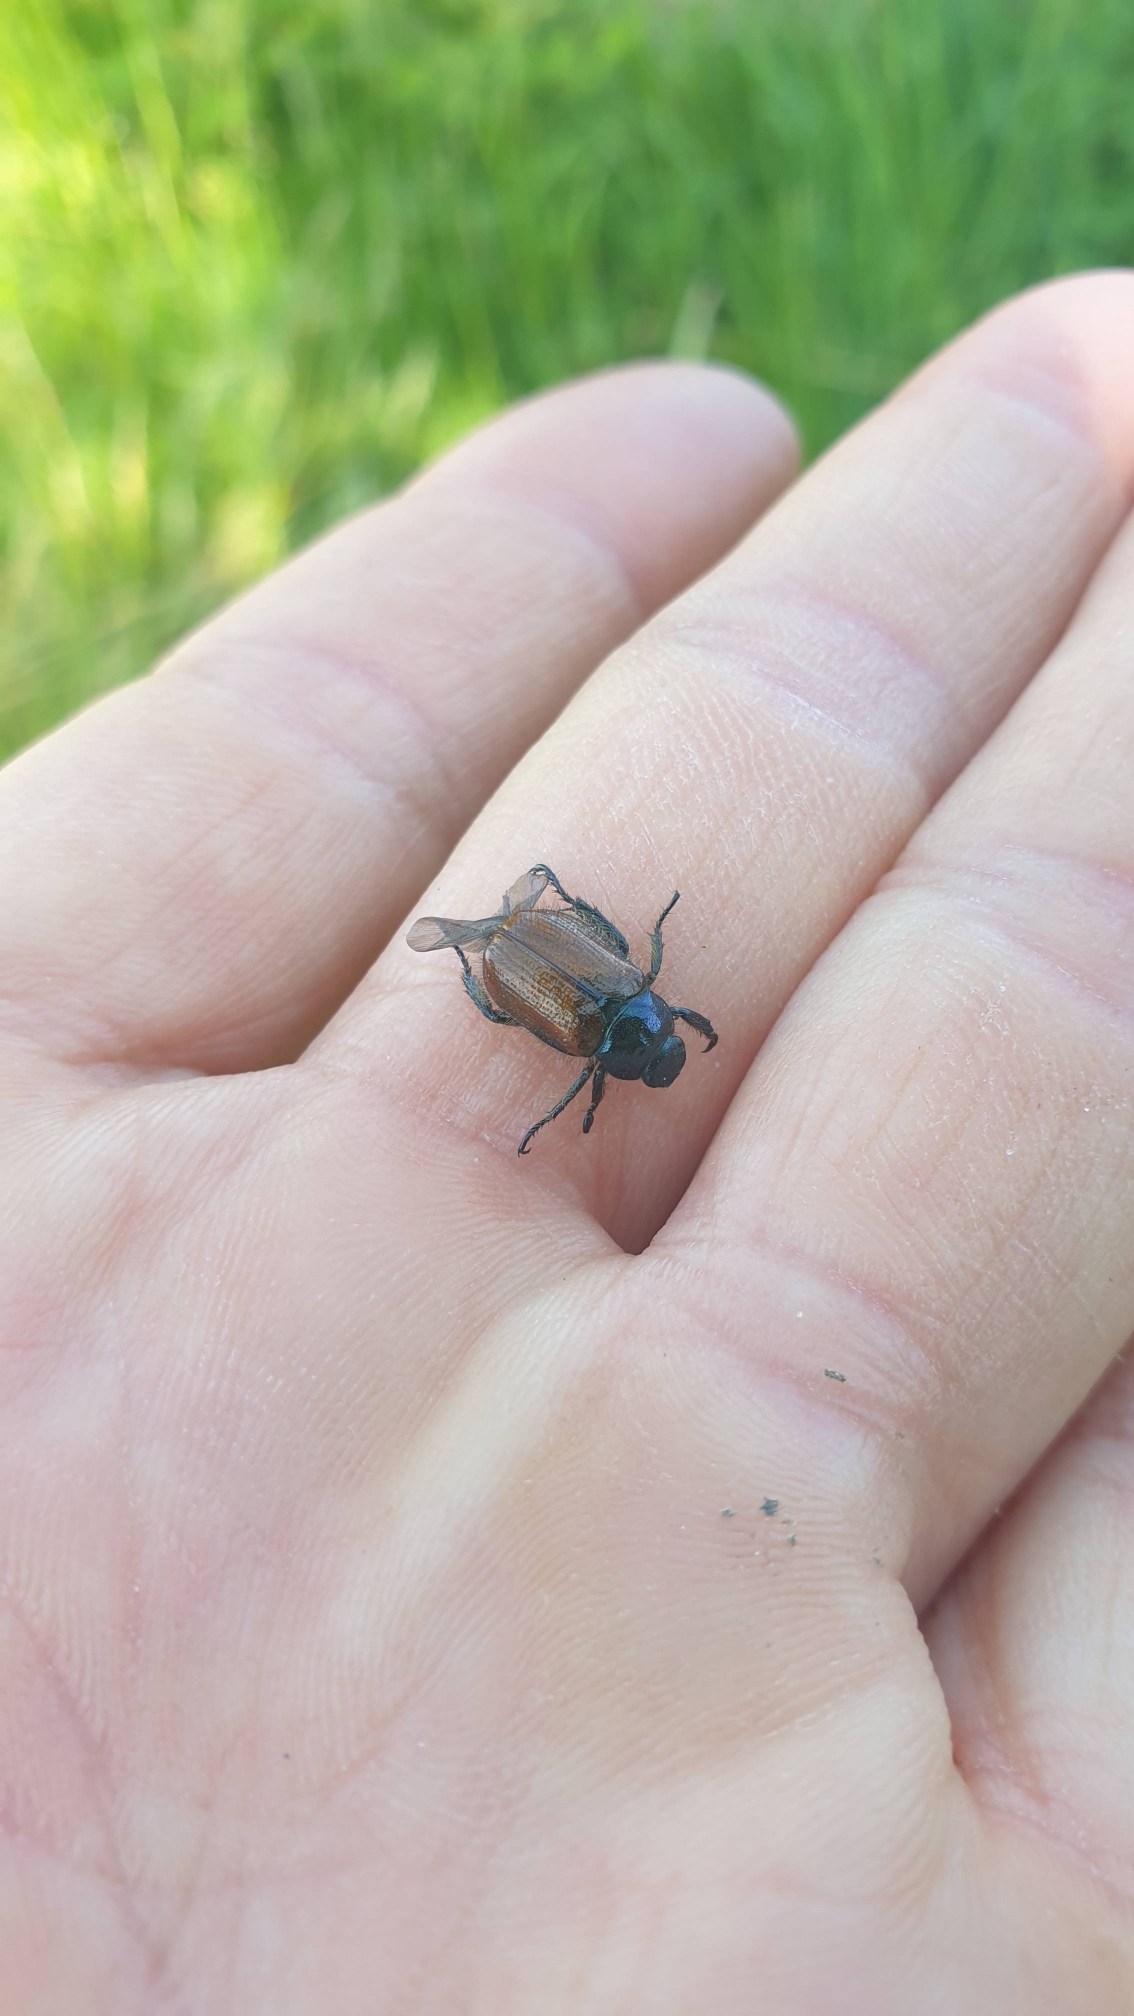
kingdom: Animalia
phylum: Arthropoda
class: Insecta
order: Coleoptera
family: Scarabaeidae
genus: Phyllopertha
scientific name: Phyllopertha horticola
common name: Gåsebille
